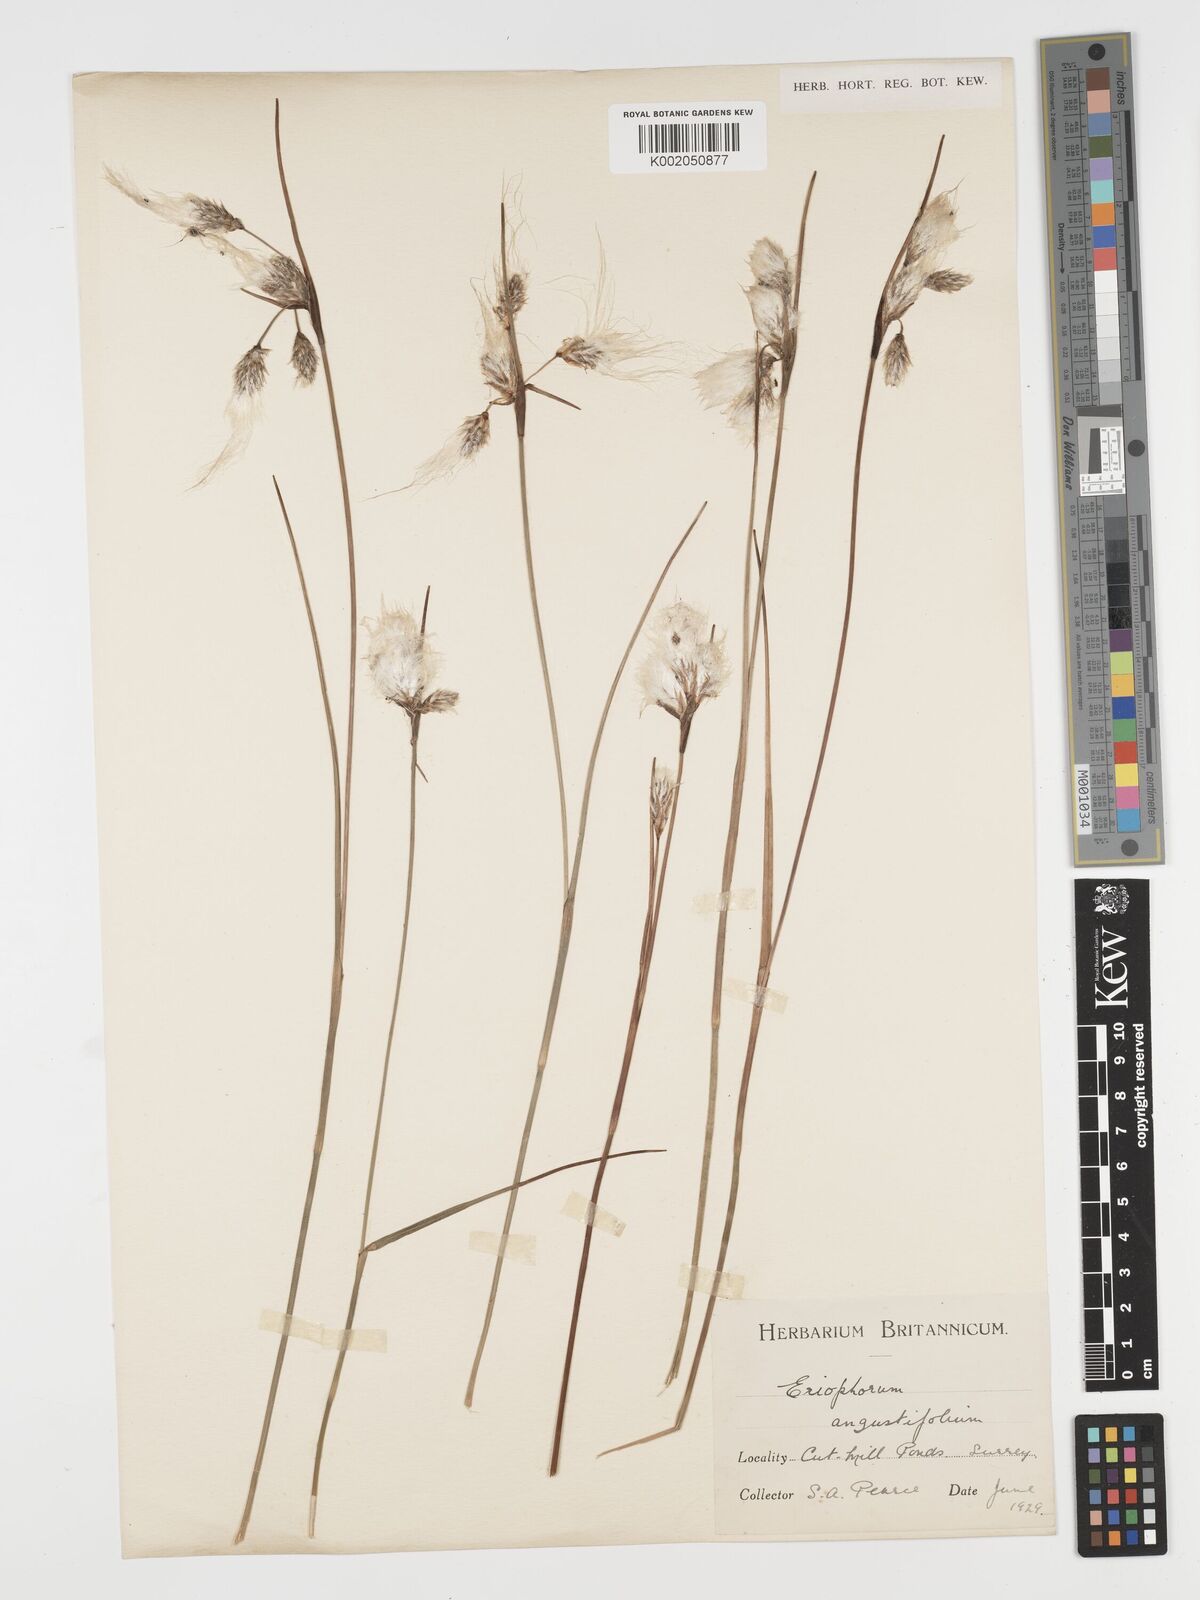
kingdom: Plantae
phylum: Tracheophyta
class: Liliopsida
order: Poales
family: Cyperaceae
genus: Eriophorum
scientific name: Eriophorum angustifolium
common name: Common cottongrass
